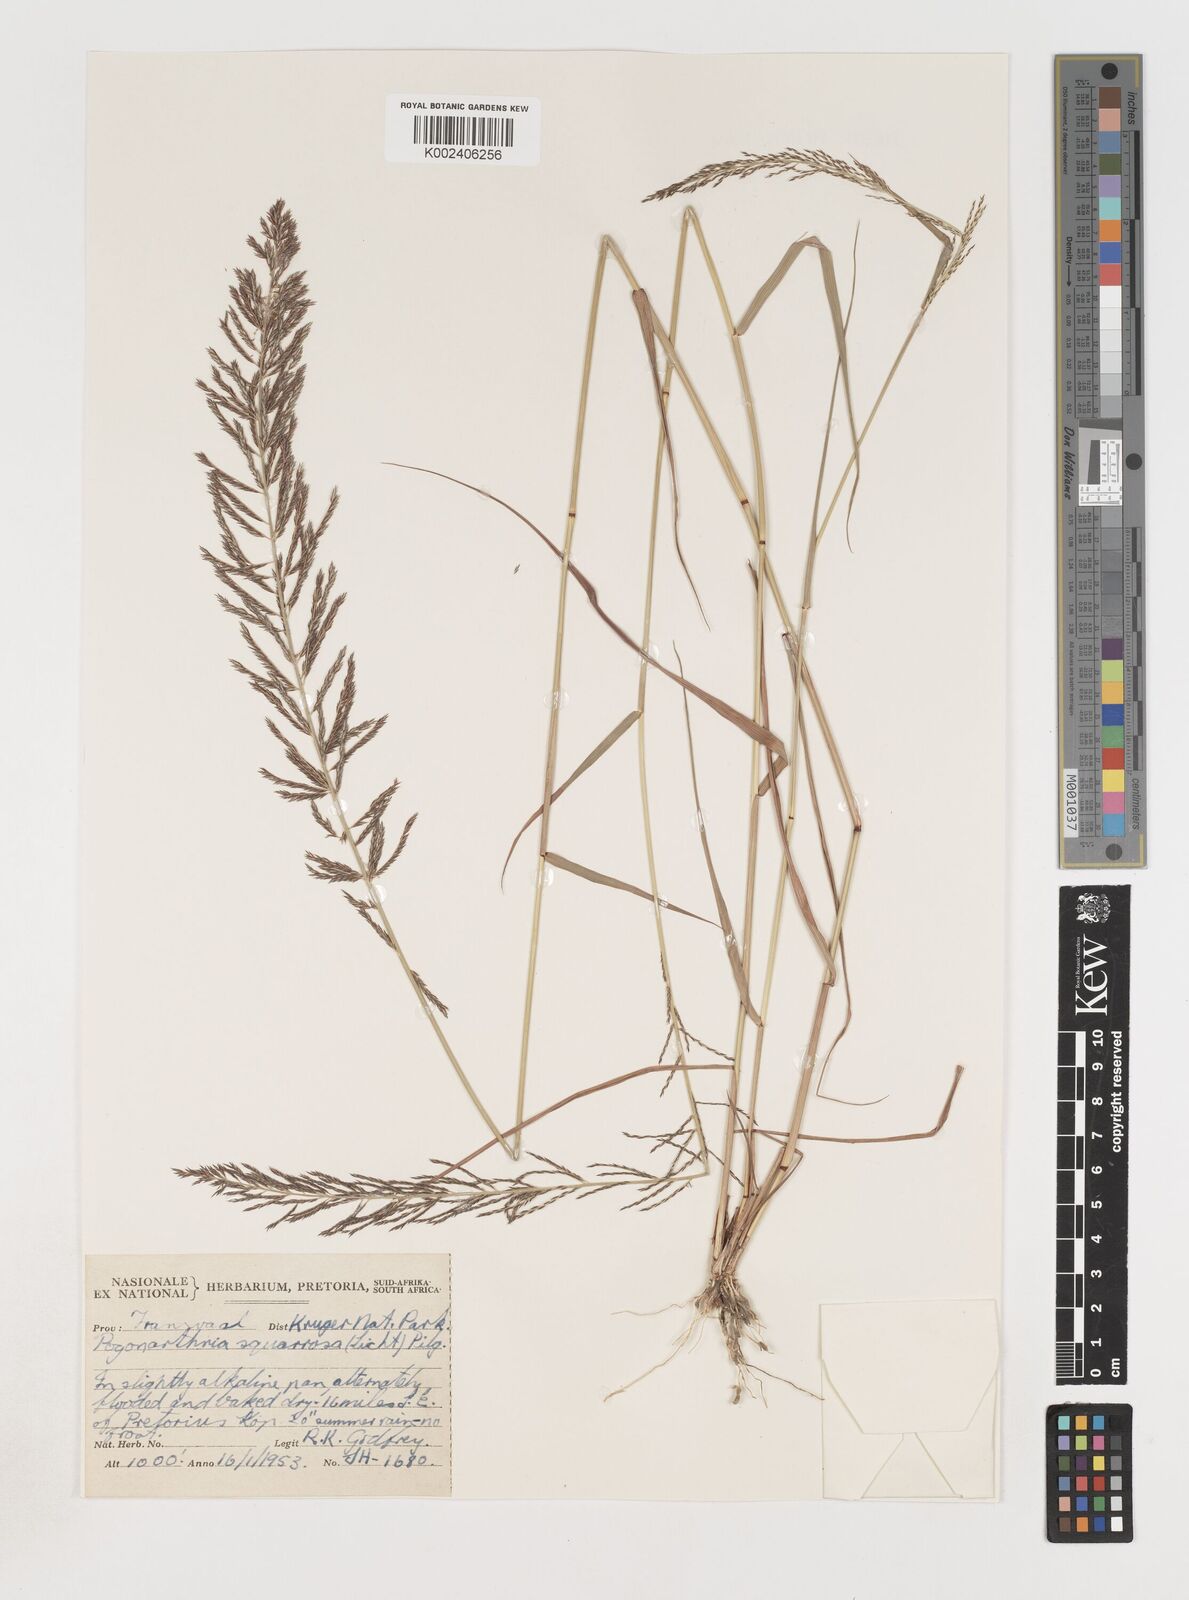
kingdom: Plantae
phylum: Tracheophyta
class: Liliopsida
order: Poales
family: Poaceae
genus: Pogonarthria
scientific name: Pogonarthria squarrosa
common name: Grass
